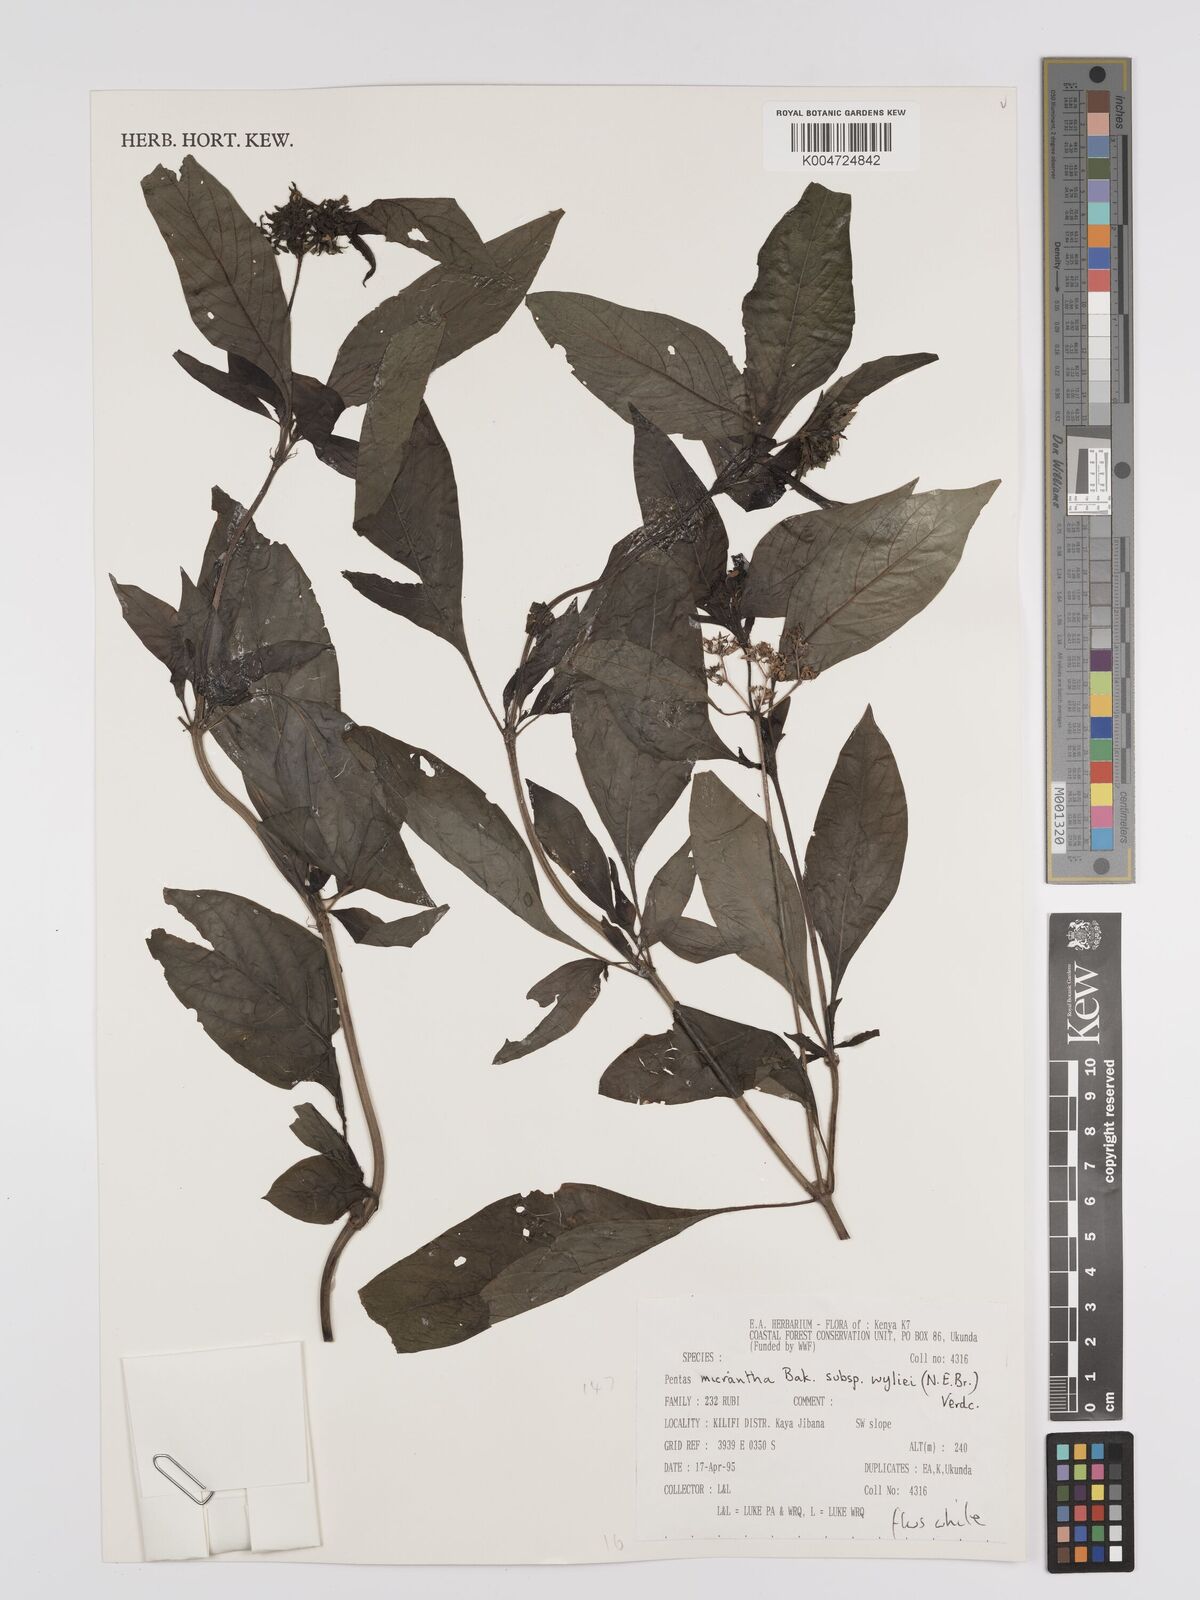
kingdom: Plantae
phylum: Tracheophyta
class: Magnoliopsida
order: Gentianales
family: Rubiaceae
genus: Pentas
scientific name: Pentas micrantha
